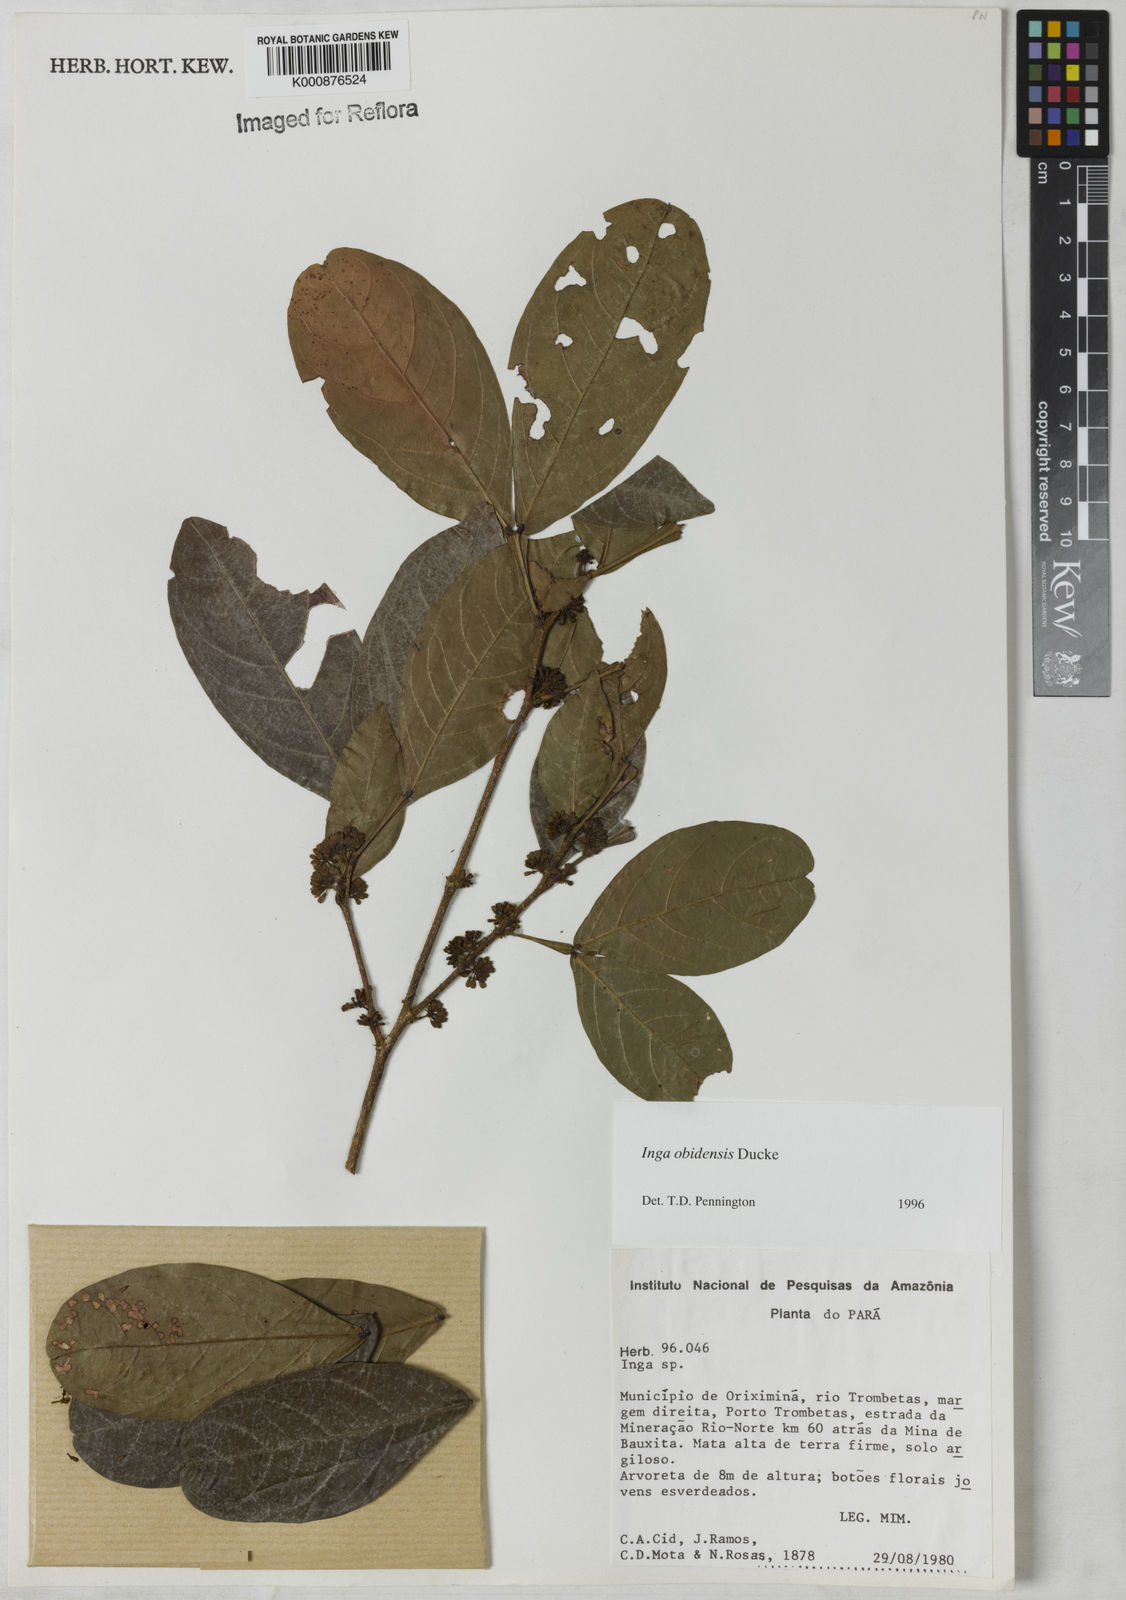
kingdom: Plantae
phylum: Tracheophyta
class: Magnoliopsida
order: Fabales
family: Fabaceae
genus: Inga
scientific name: Inga obidensis
